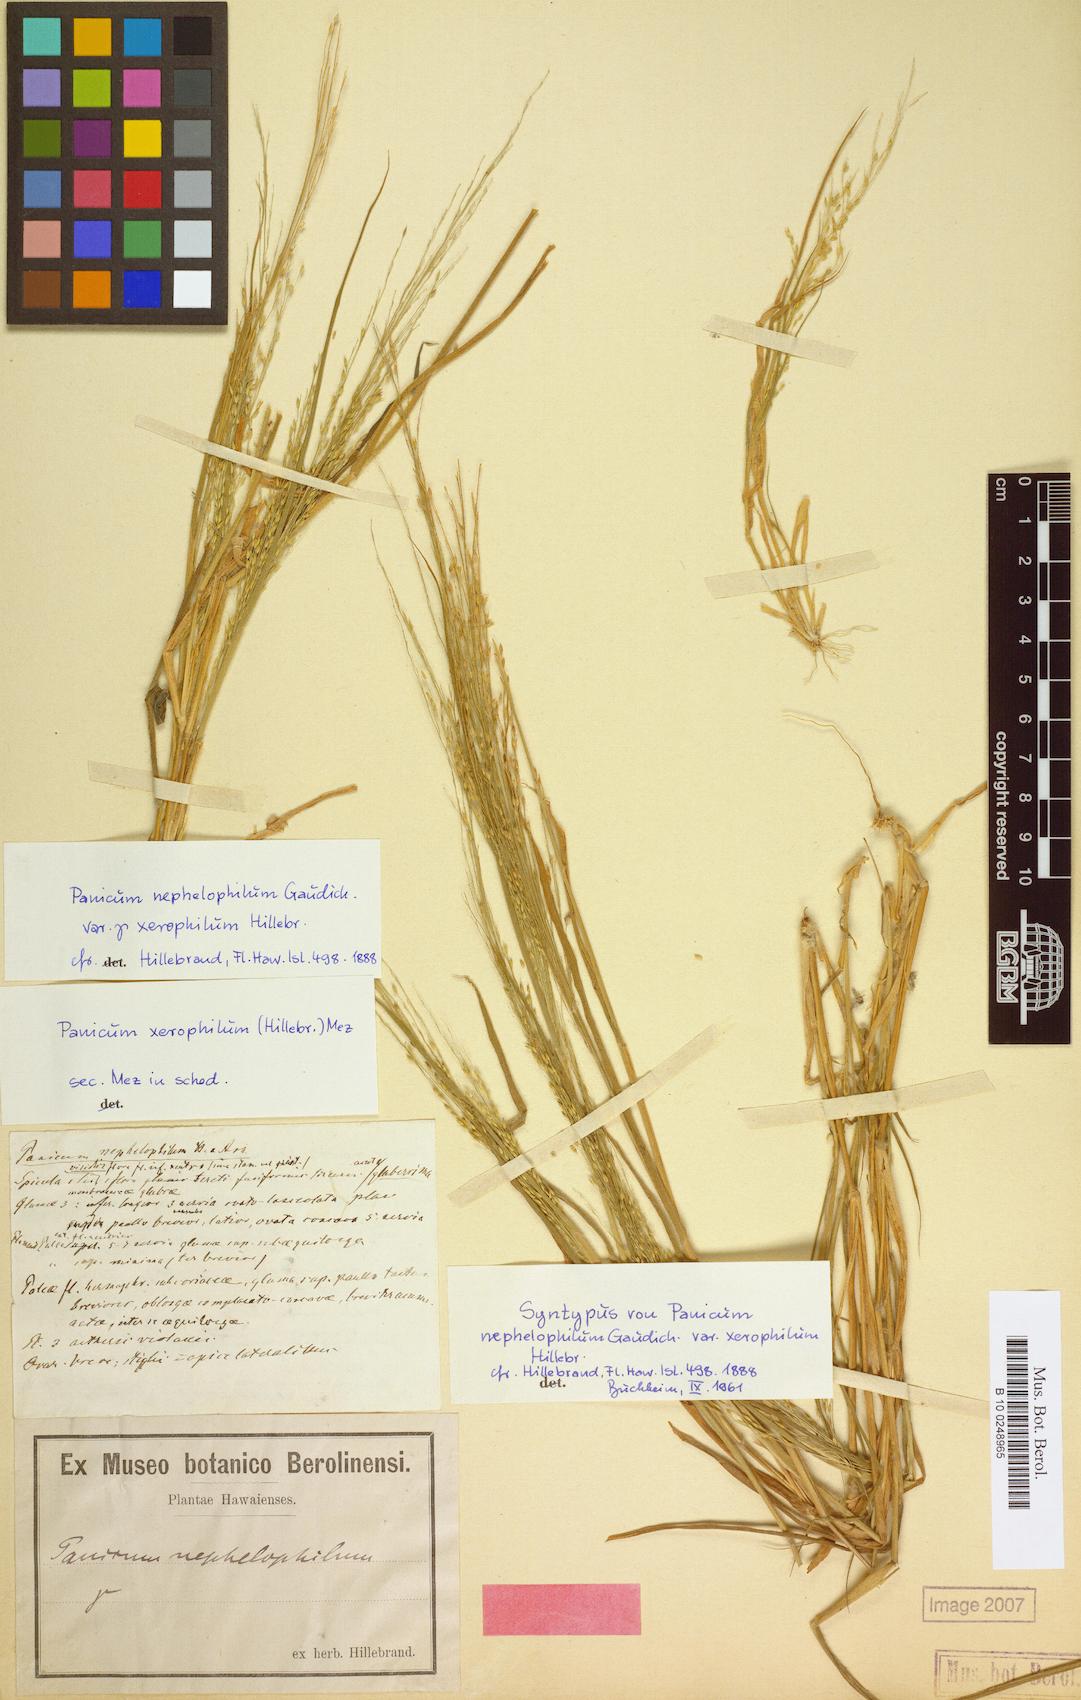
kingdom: Plantae
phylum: Tracheophyta
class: Liliopsida
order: Poales
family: Poaceae
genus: Panicum
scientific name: Panicum xerophilum
